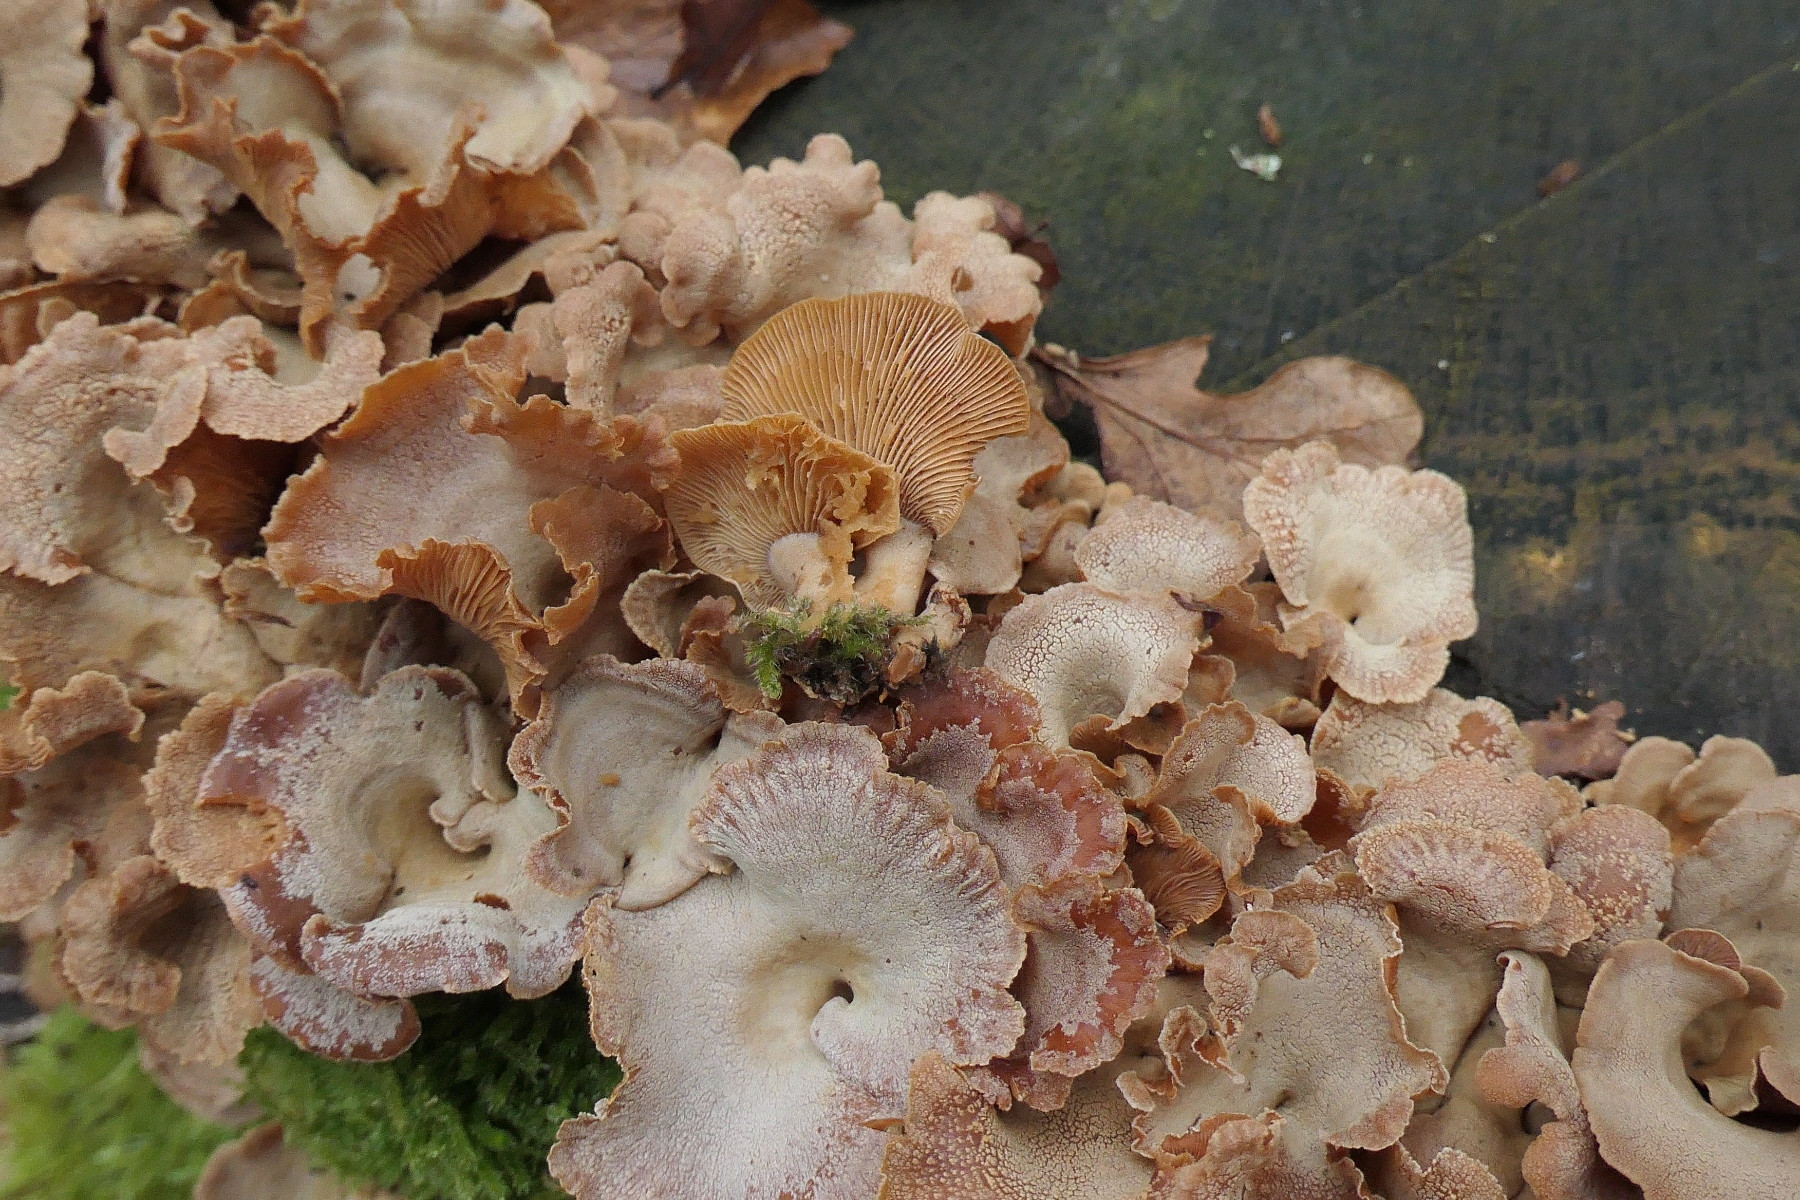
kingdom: Fungi
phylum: Basidiomycota
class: Agaricomycetes
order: Agaricales
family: Mycenaceae
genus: Panellus
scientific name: Panellus stipticus
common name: kliddet epaulethat
